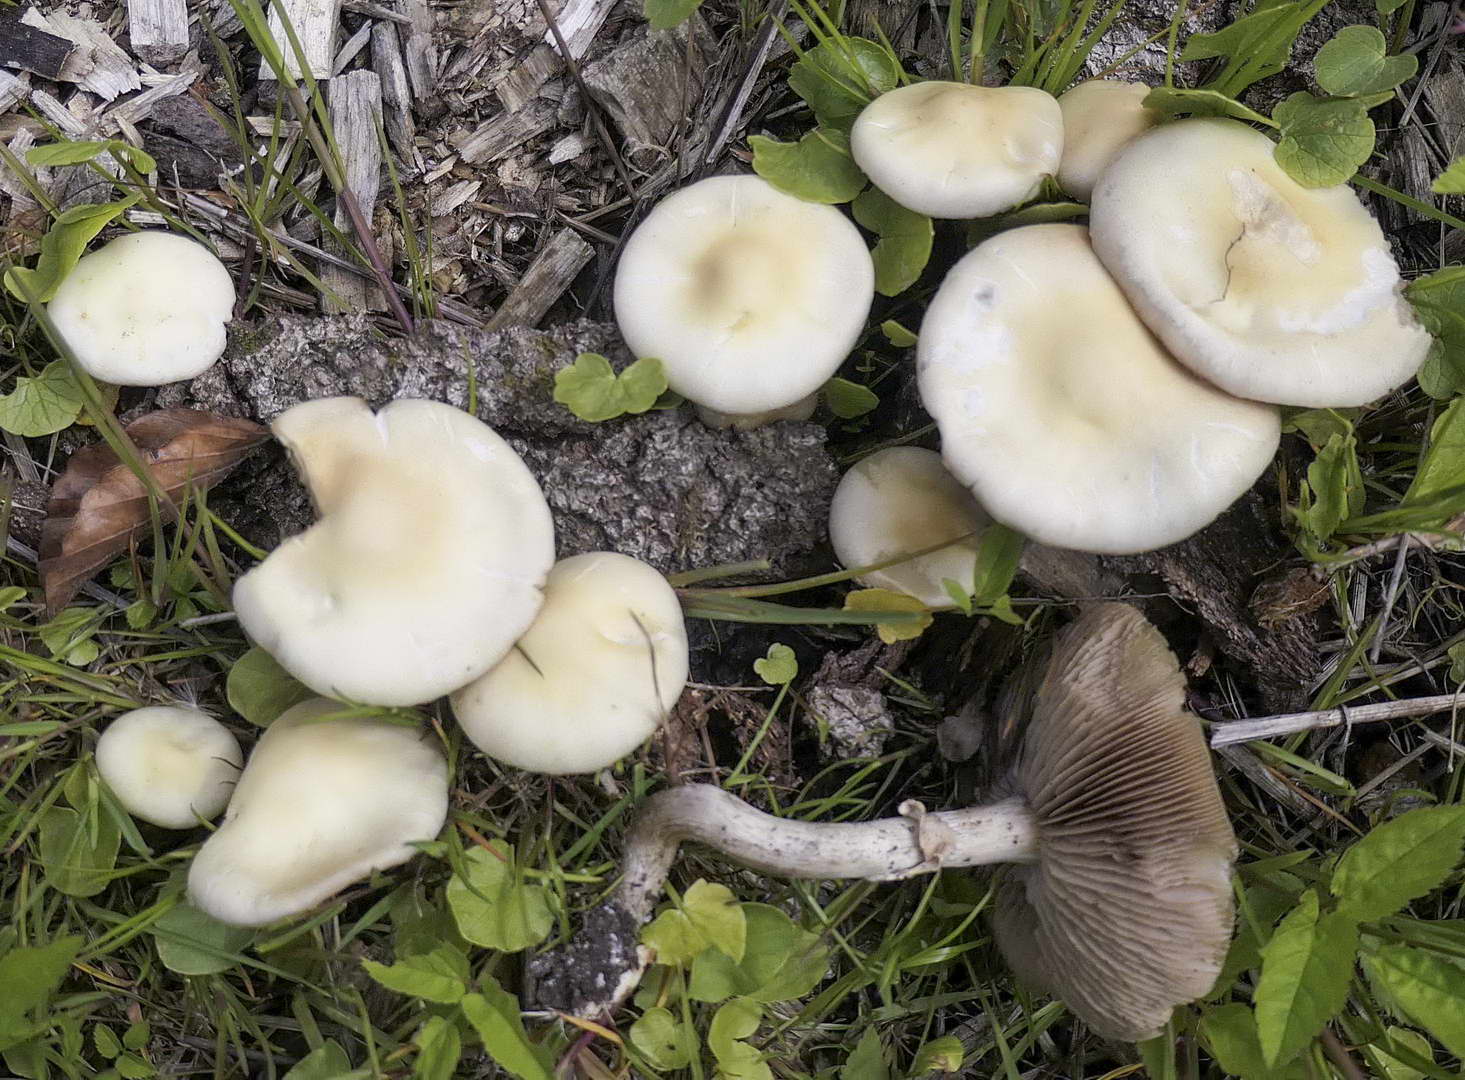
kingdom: Fungi
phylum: Basidiomycota
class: Agaricomycetes
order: Agaricales
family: Strophariaceae
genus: Agrocybe
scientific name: Agrocybe praecox
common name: tidlig agerhat
